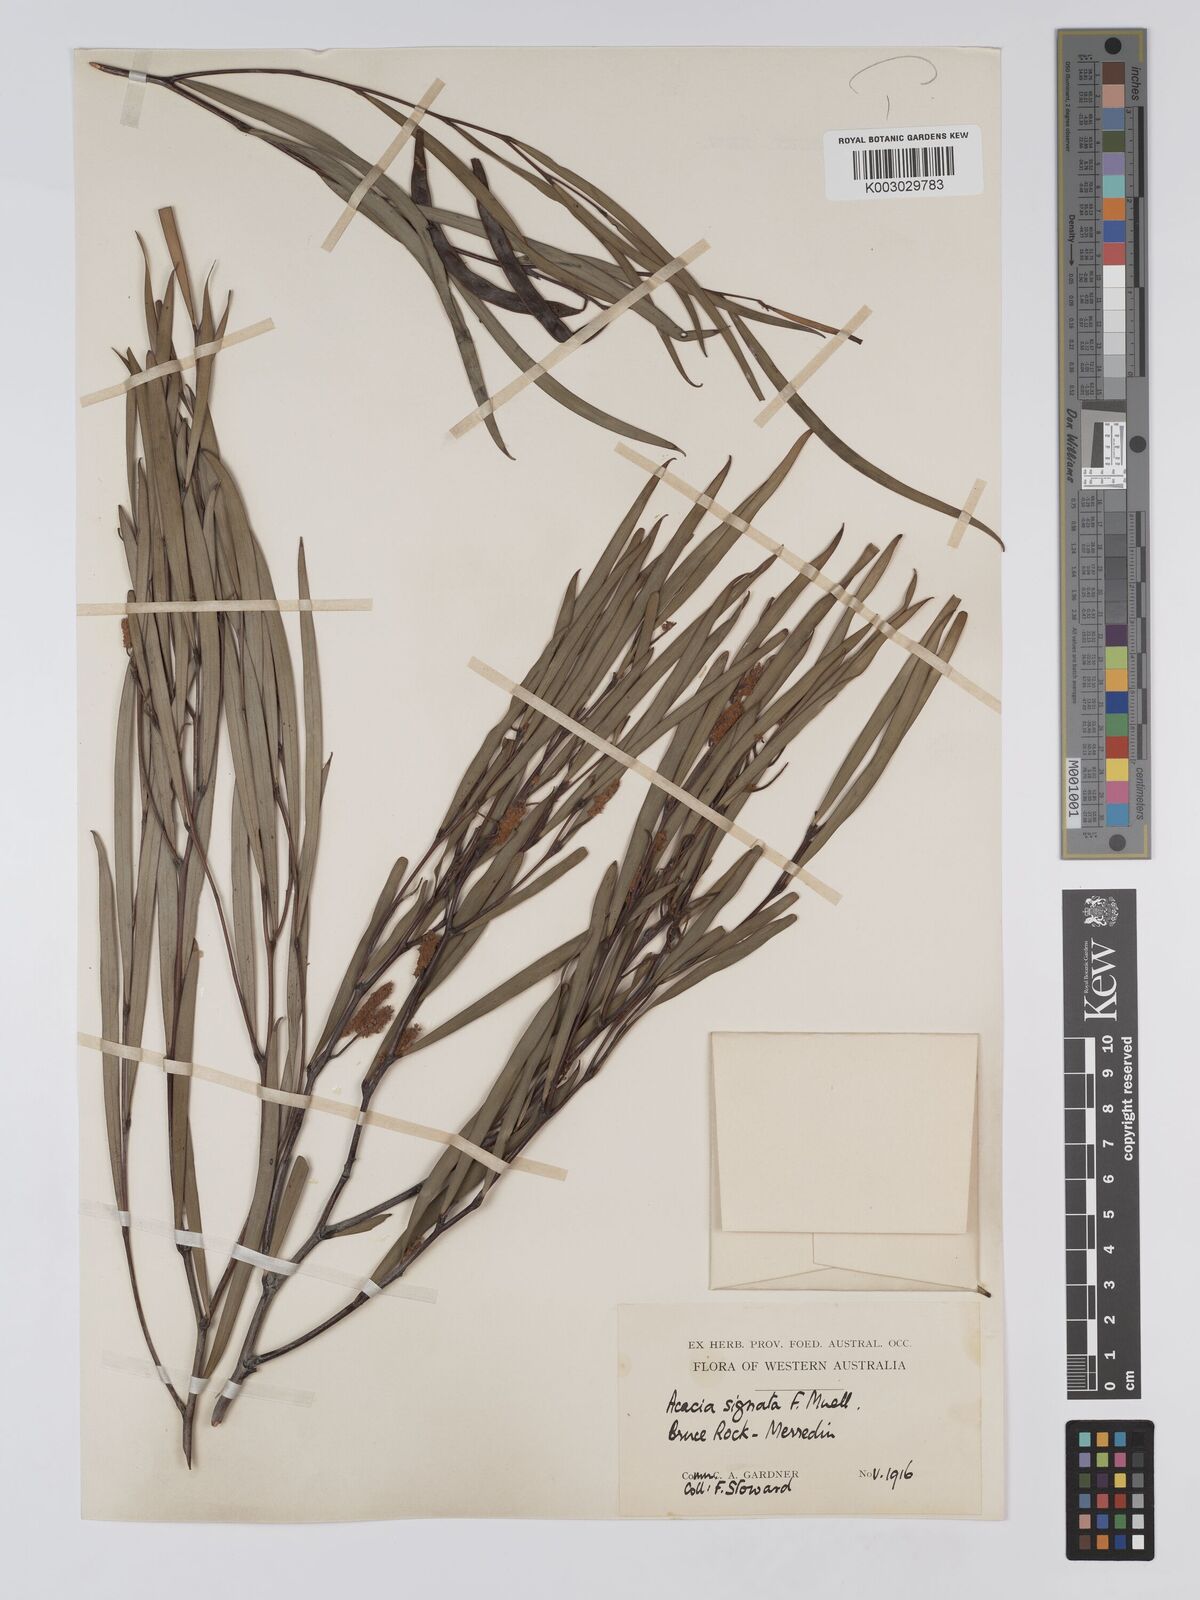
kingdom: Plantae
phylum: Tracheophyta
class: Magnoliopsida
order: Fabales
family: Fabaceae
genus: Acacia
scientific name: Acacia signata
